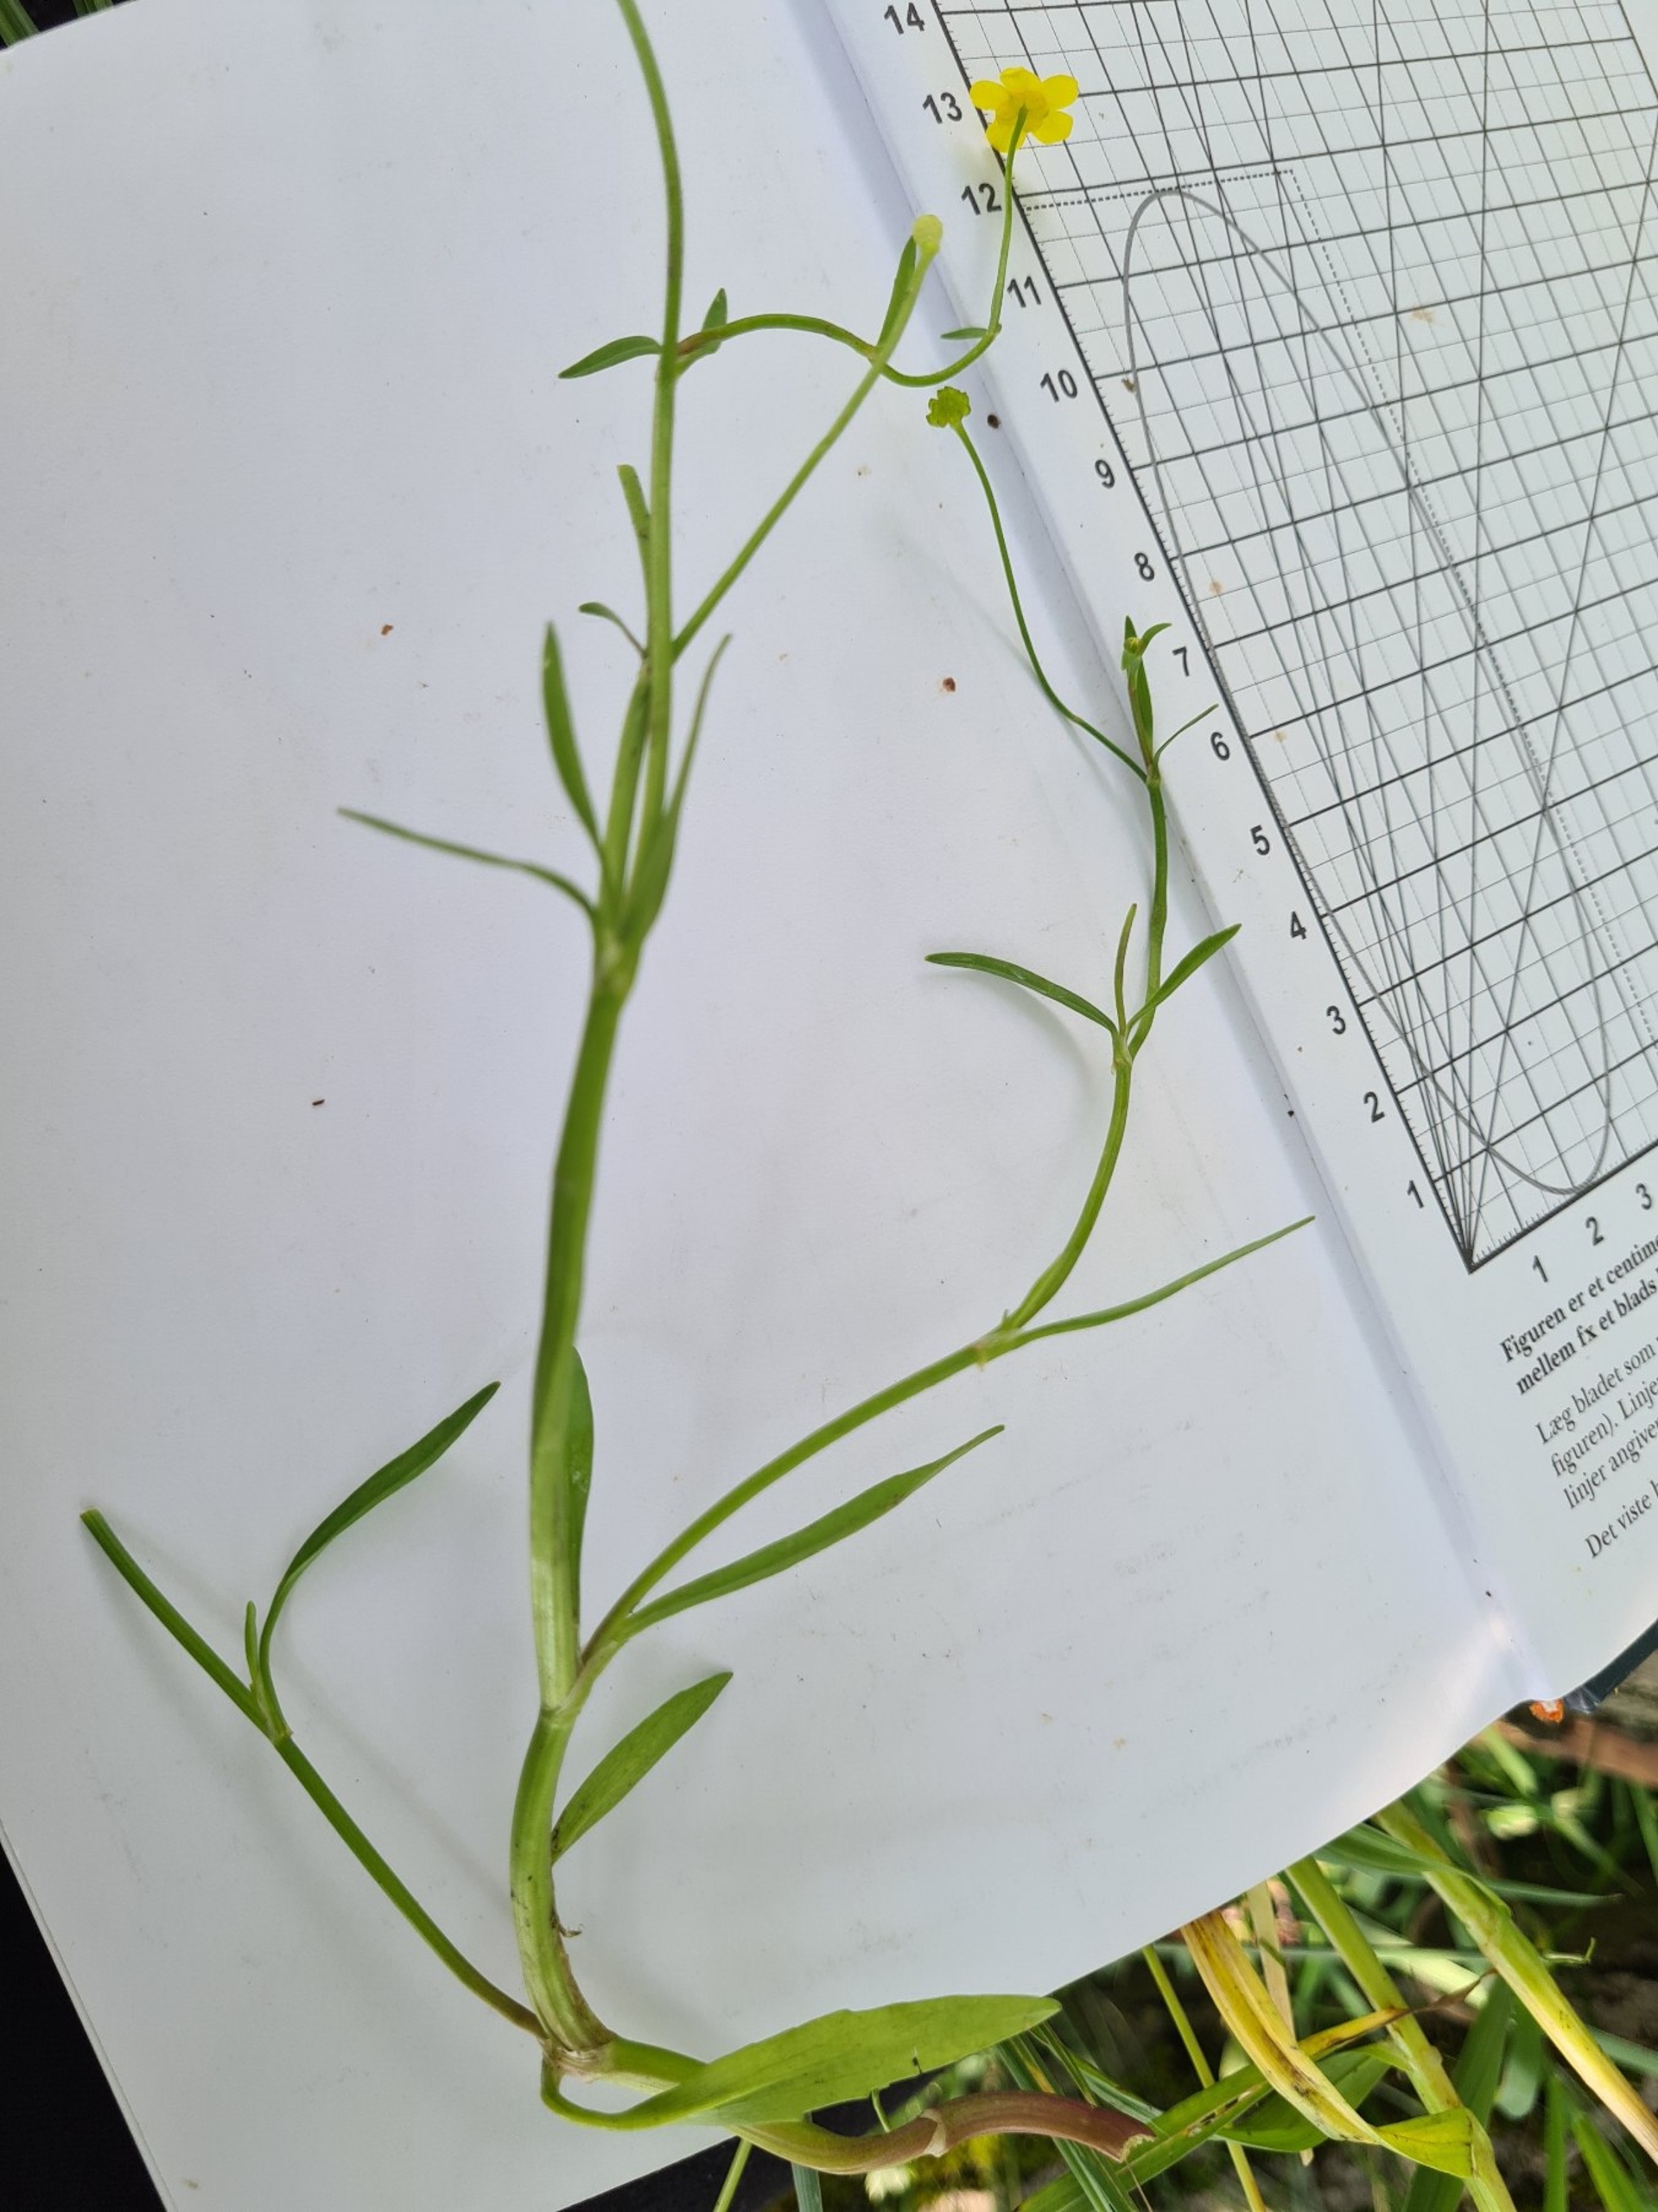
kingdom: Plantae
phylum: Tracheophyta
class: Magnoliopsida
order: Ranunculales
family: Ranunculaceae
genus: Ranunculus
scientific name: Ranunculus flammula
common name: Kær-ranunkel
